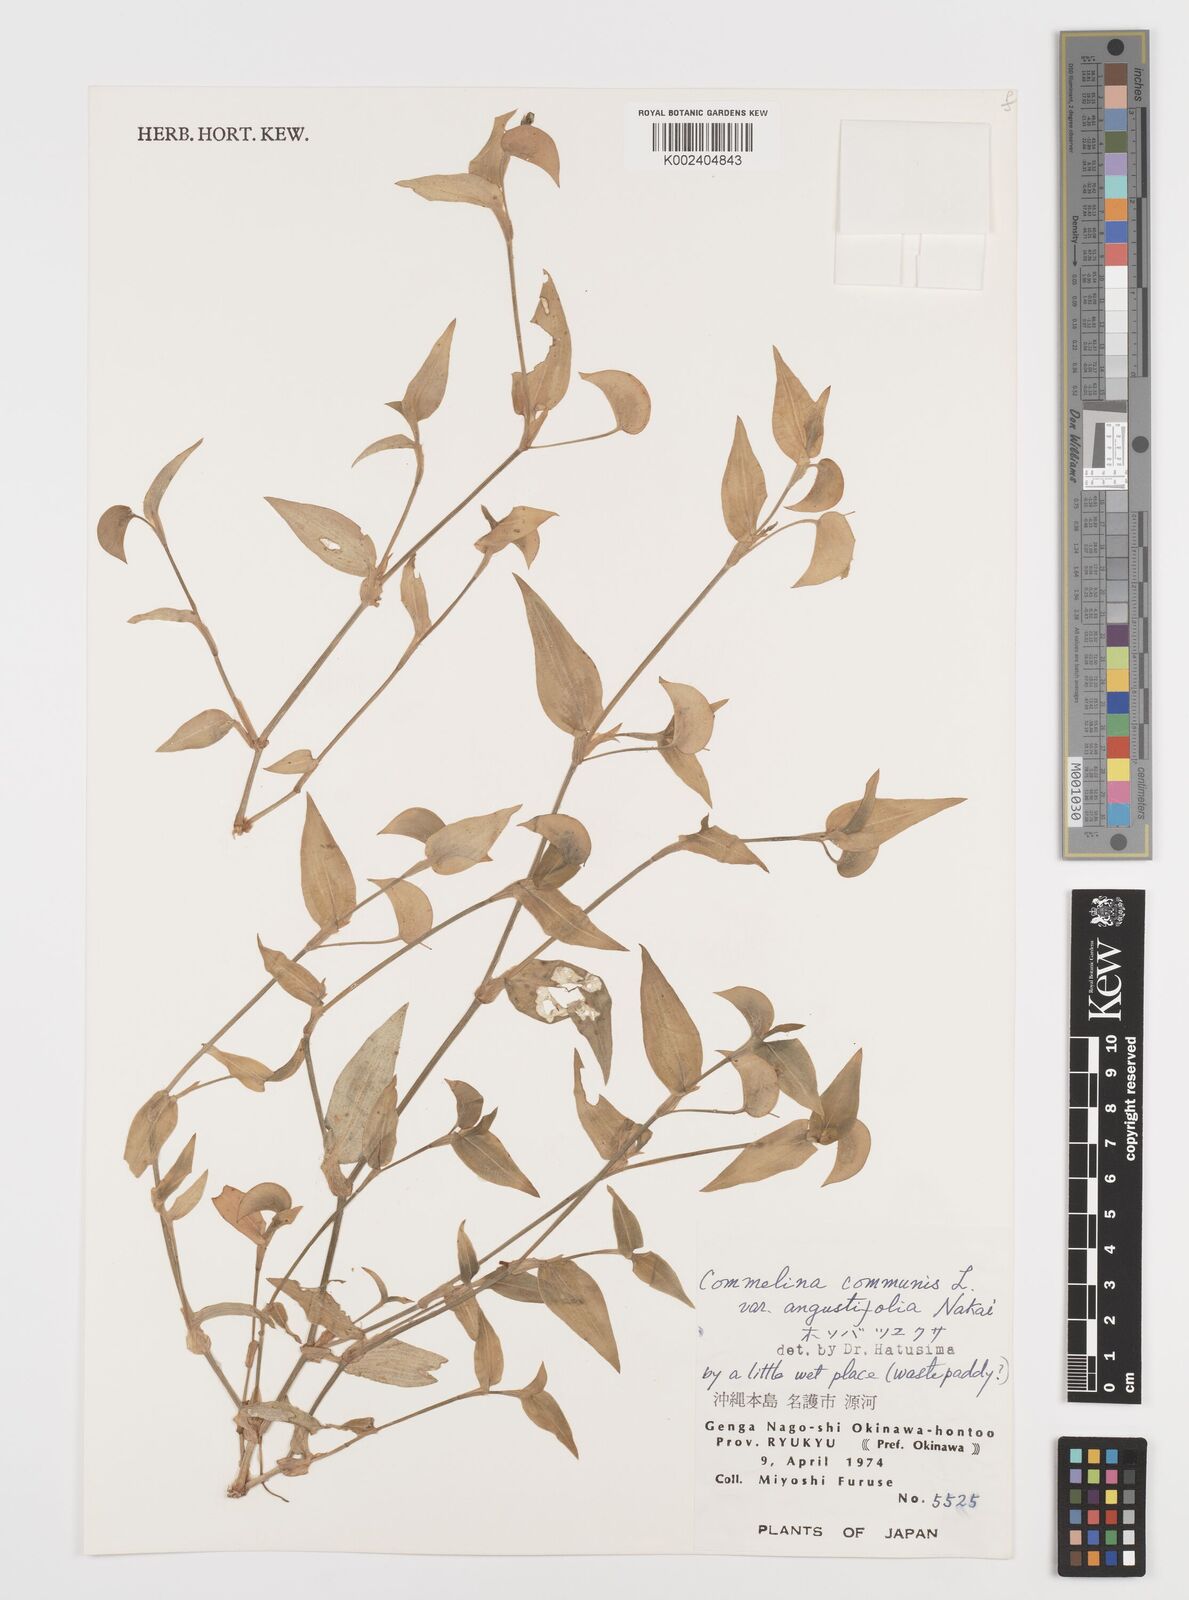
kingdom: Plantae
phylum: Tracheophyta
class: Liliopsida
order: Commelinales
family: Commelinaceae
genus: Commelina
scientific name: Commelina communis
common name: Asiatic dayflower
